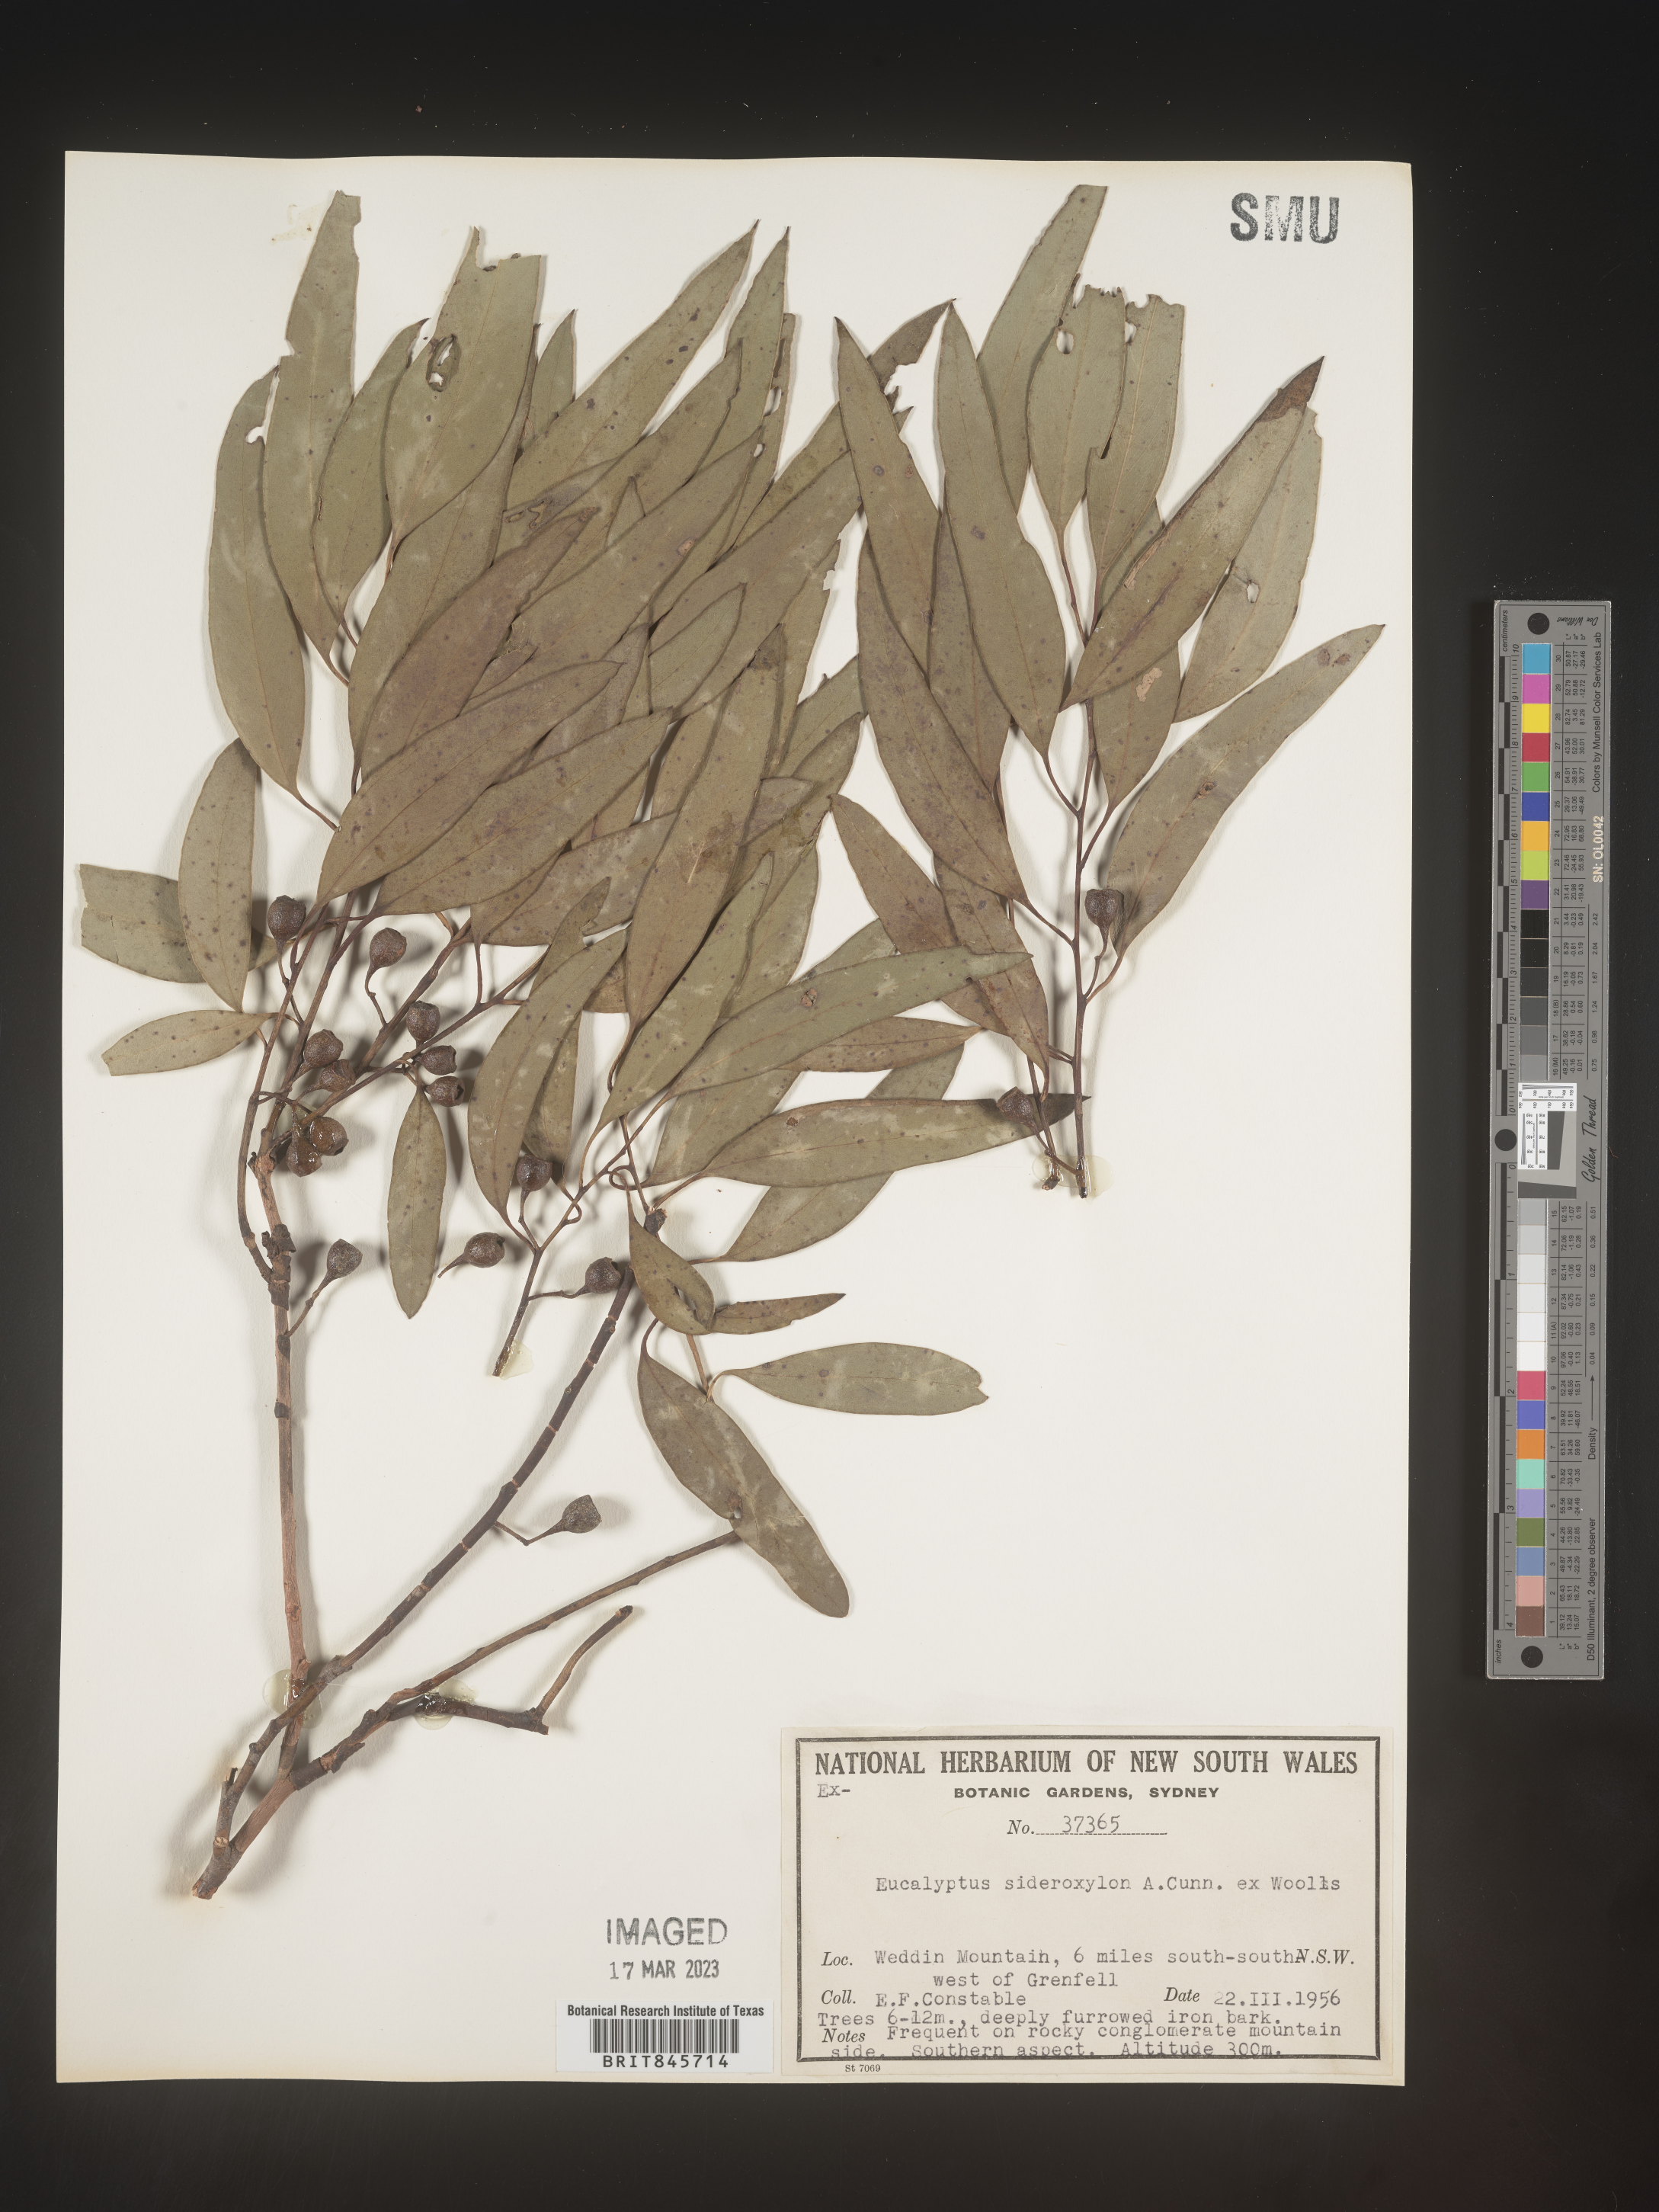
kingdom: Plantae
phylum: Tracheophyta
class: Magnoliopsida
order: Myrtales
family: Myrtaceae
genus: Eucalyptus
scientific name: Eucalyptus
